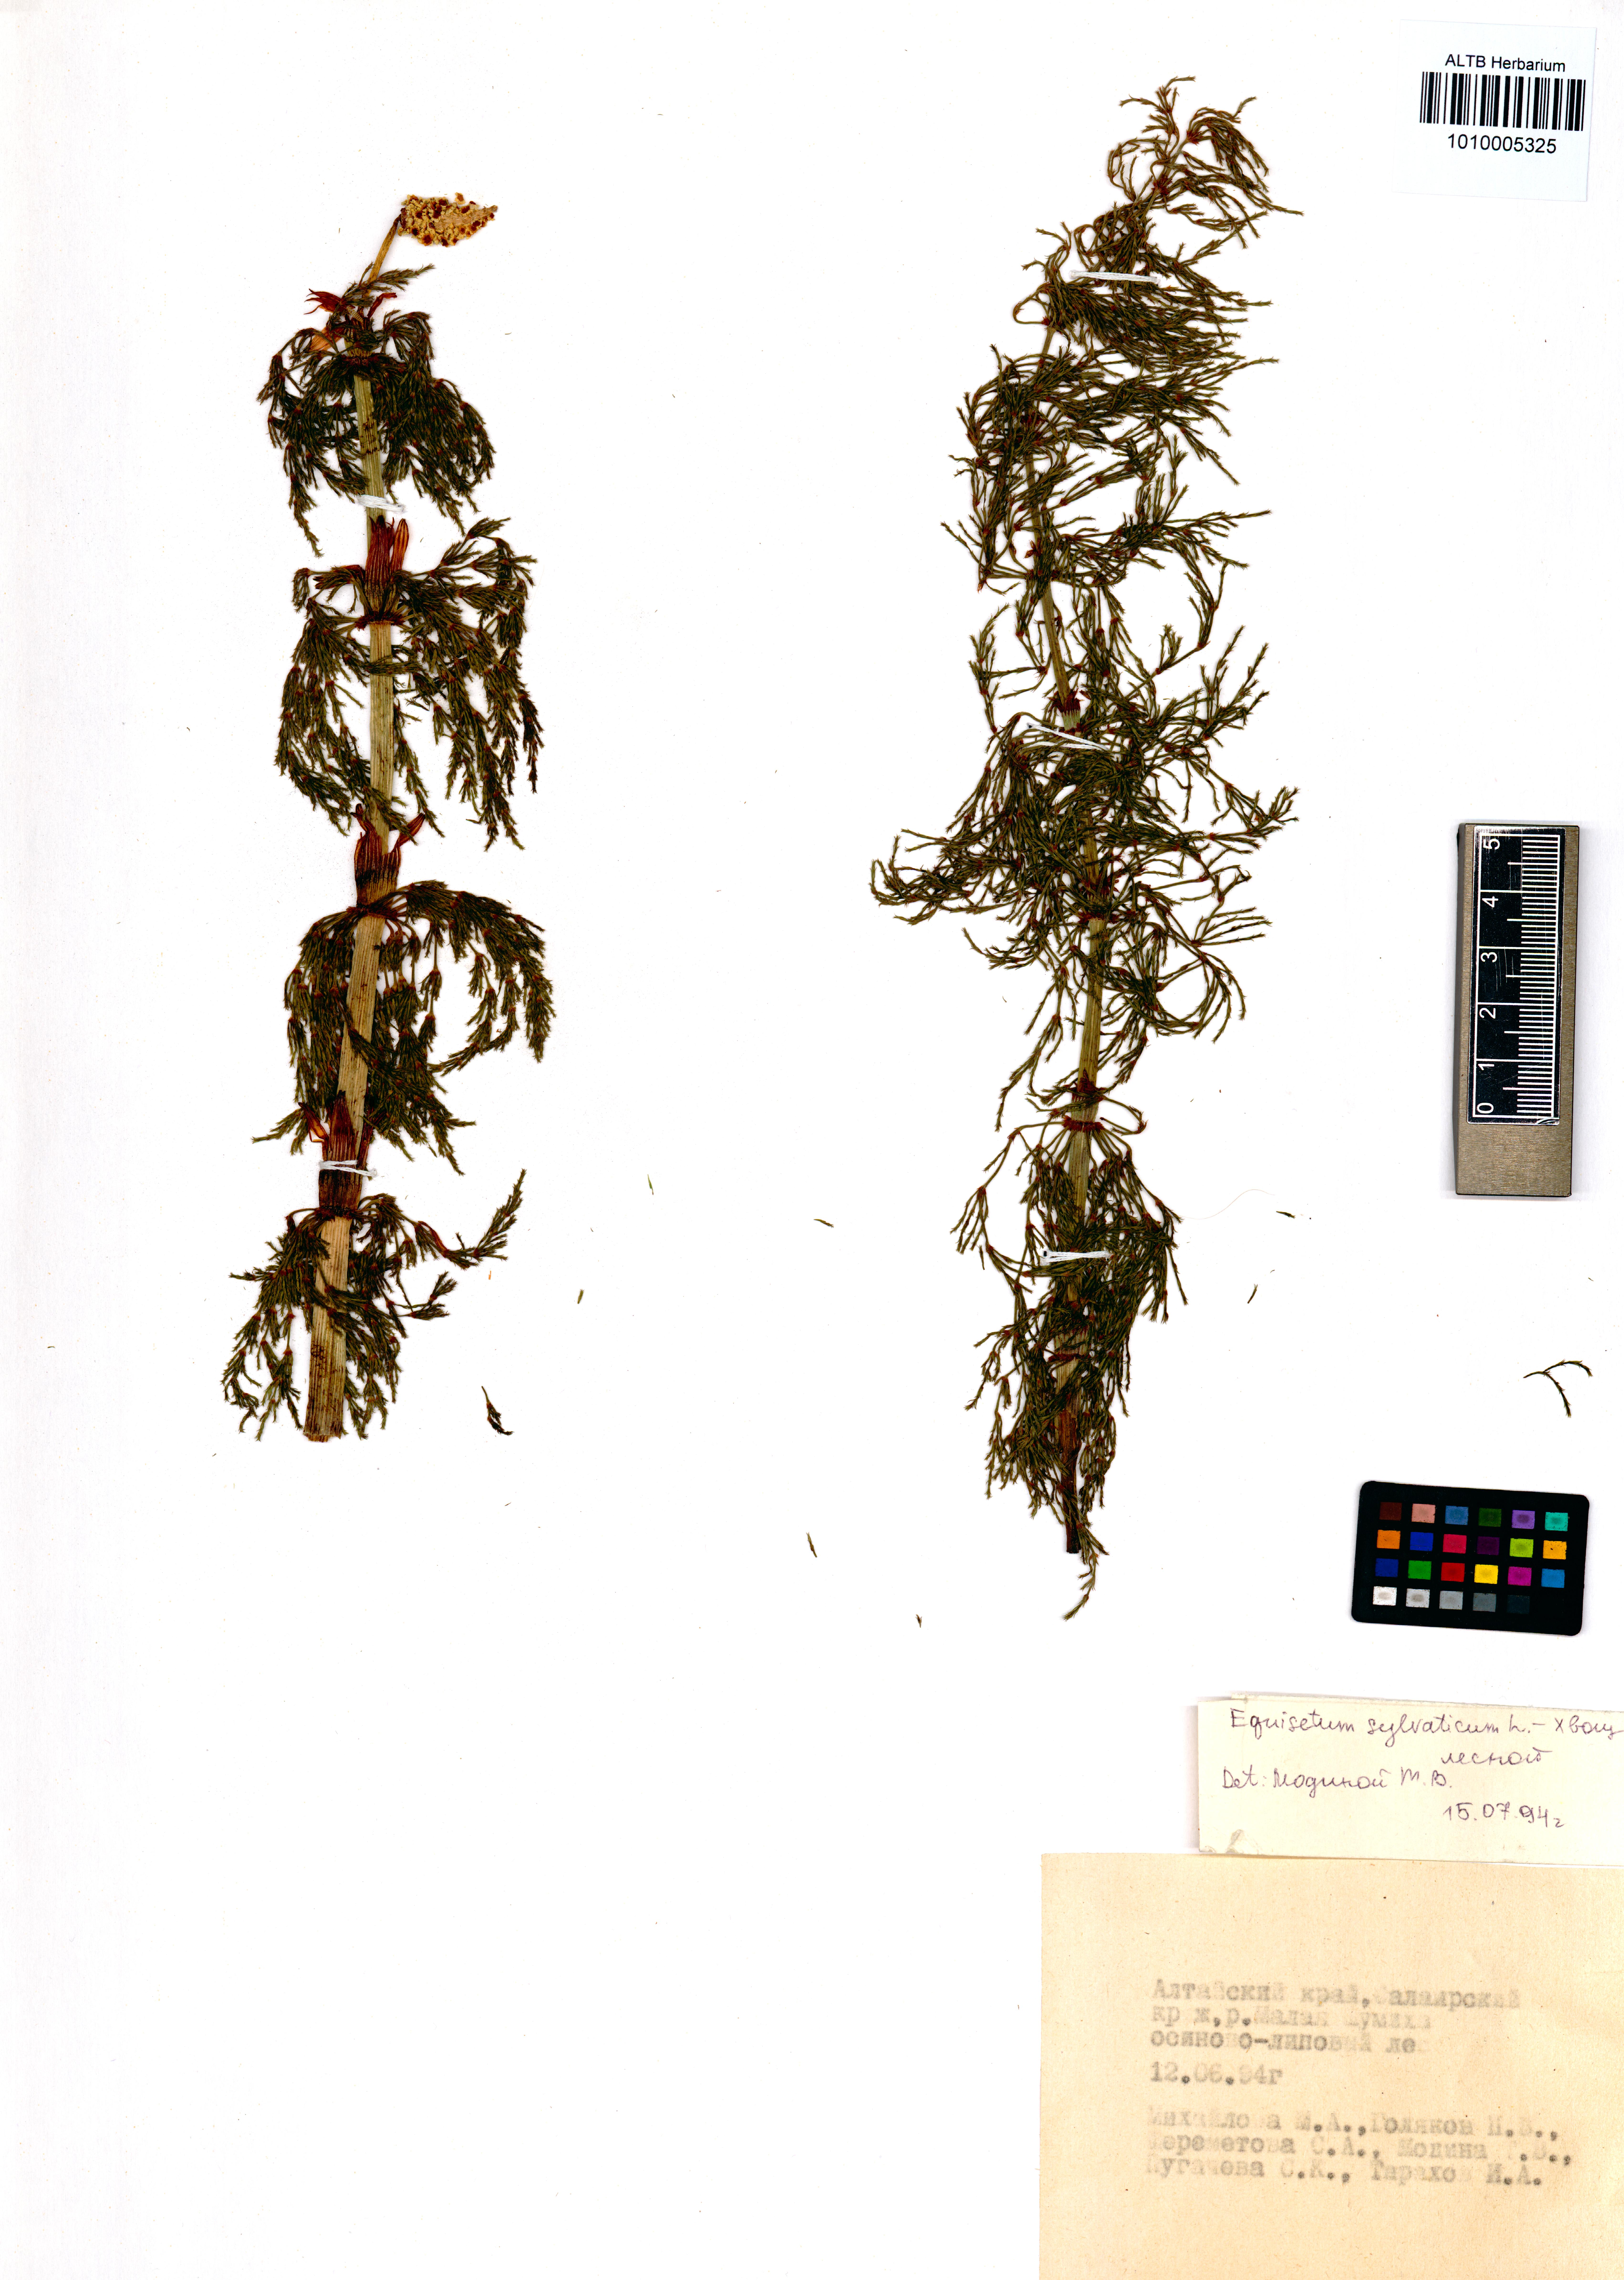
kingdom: Plantae
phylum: Tracheophyta
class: Polypodiopsida
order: Equisetales
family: Equisetaceae
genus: Equisetum
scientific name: Equisetum sylvaticum
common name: Wood horsetail
